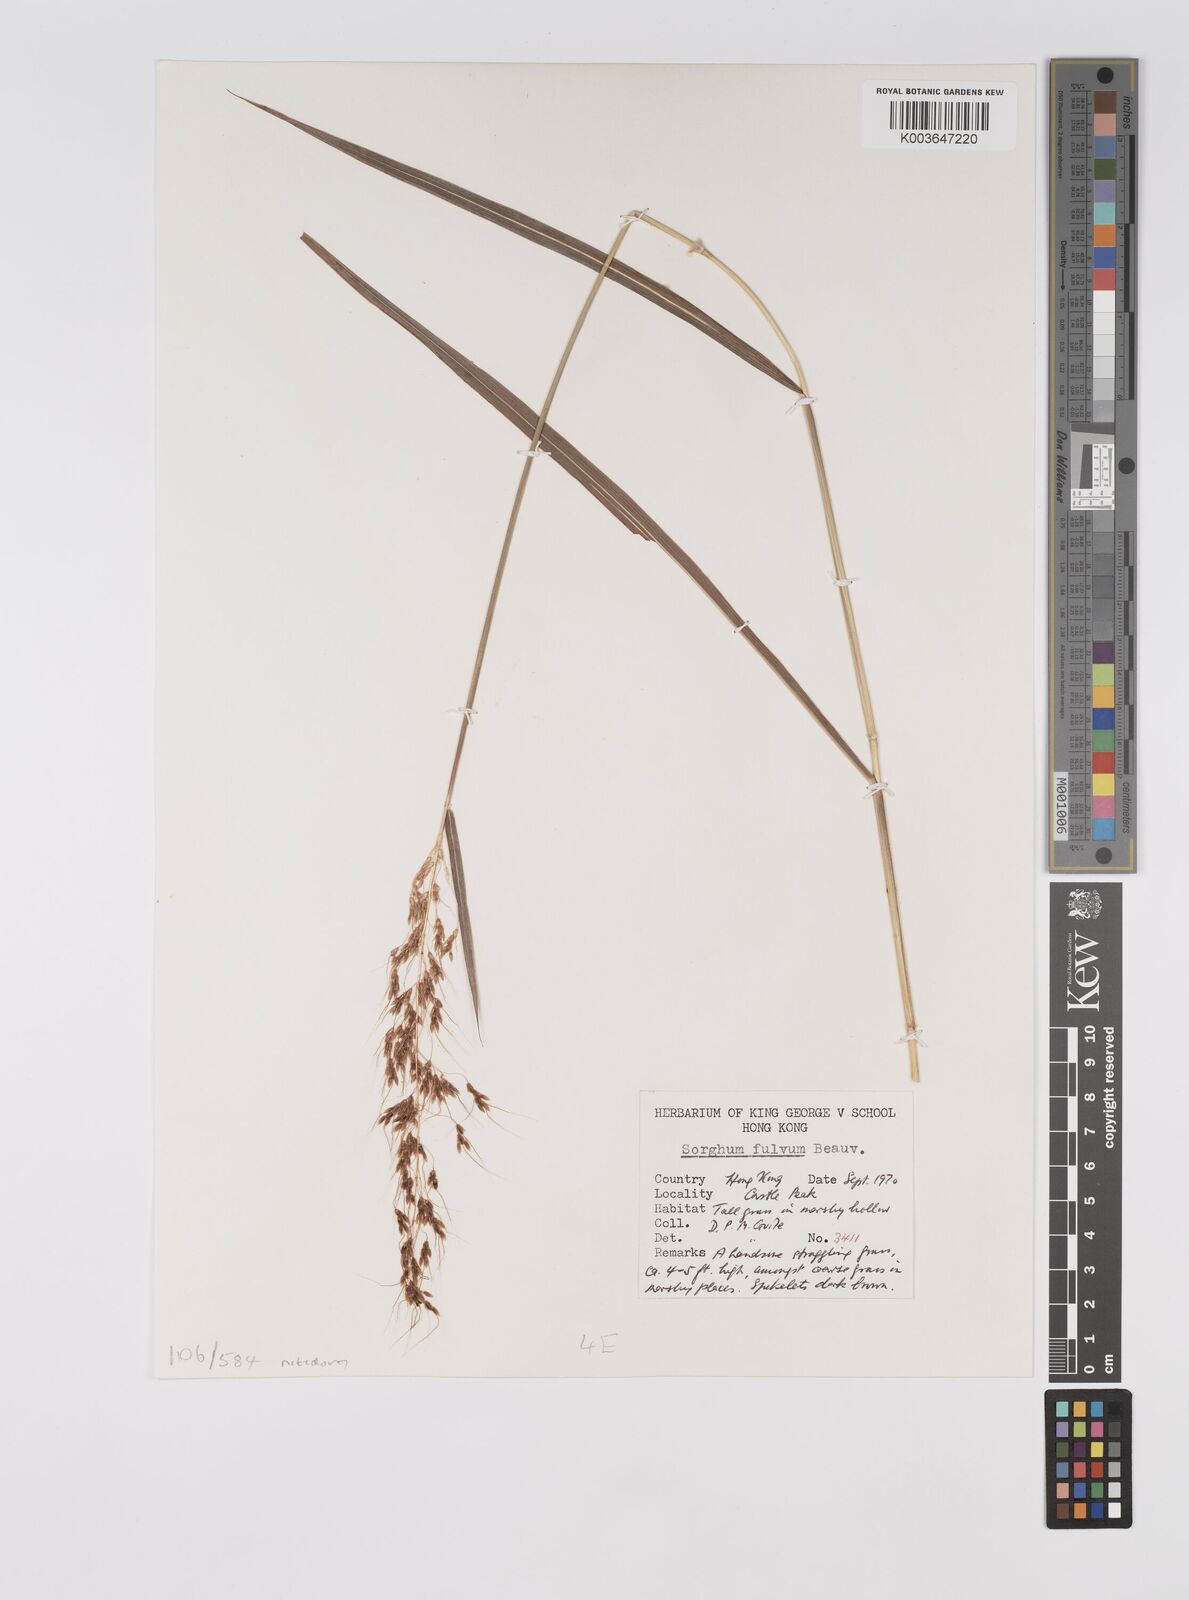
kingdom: Plantae
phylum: Tracheophyta
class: Liliopsida
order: Poales
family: Poaceae
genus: Sorghum
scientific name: Sorghum nitidum
